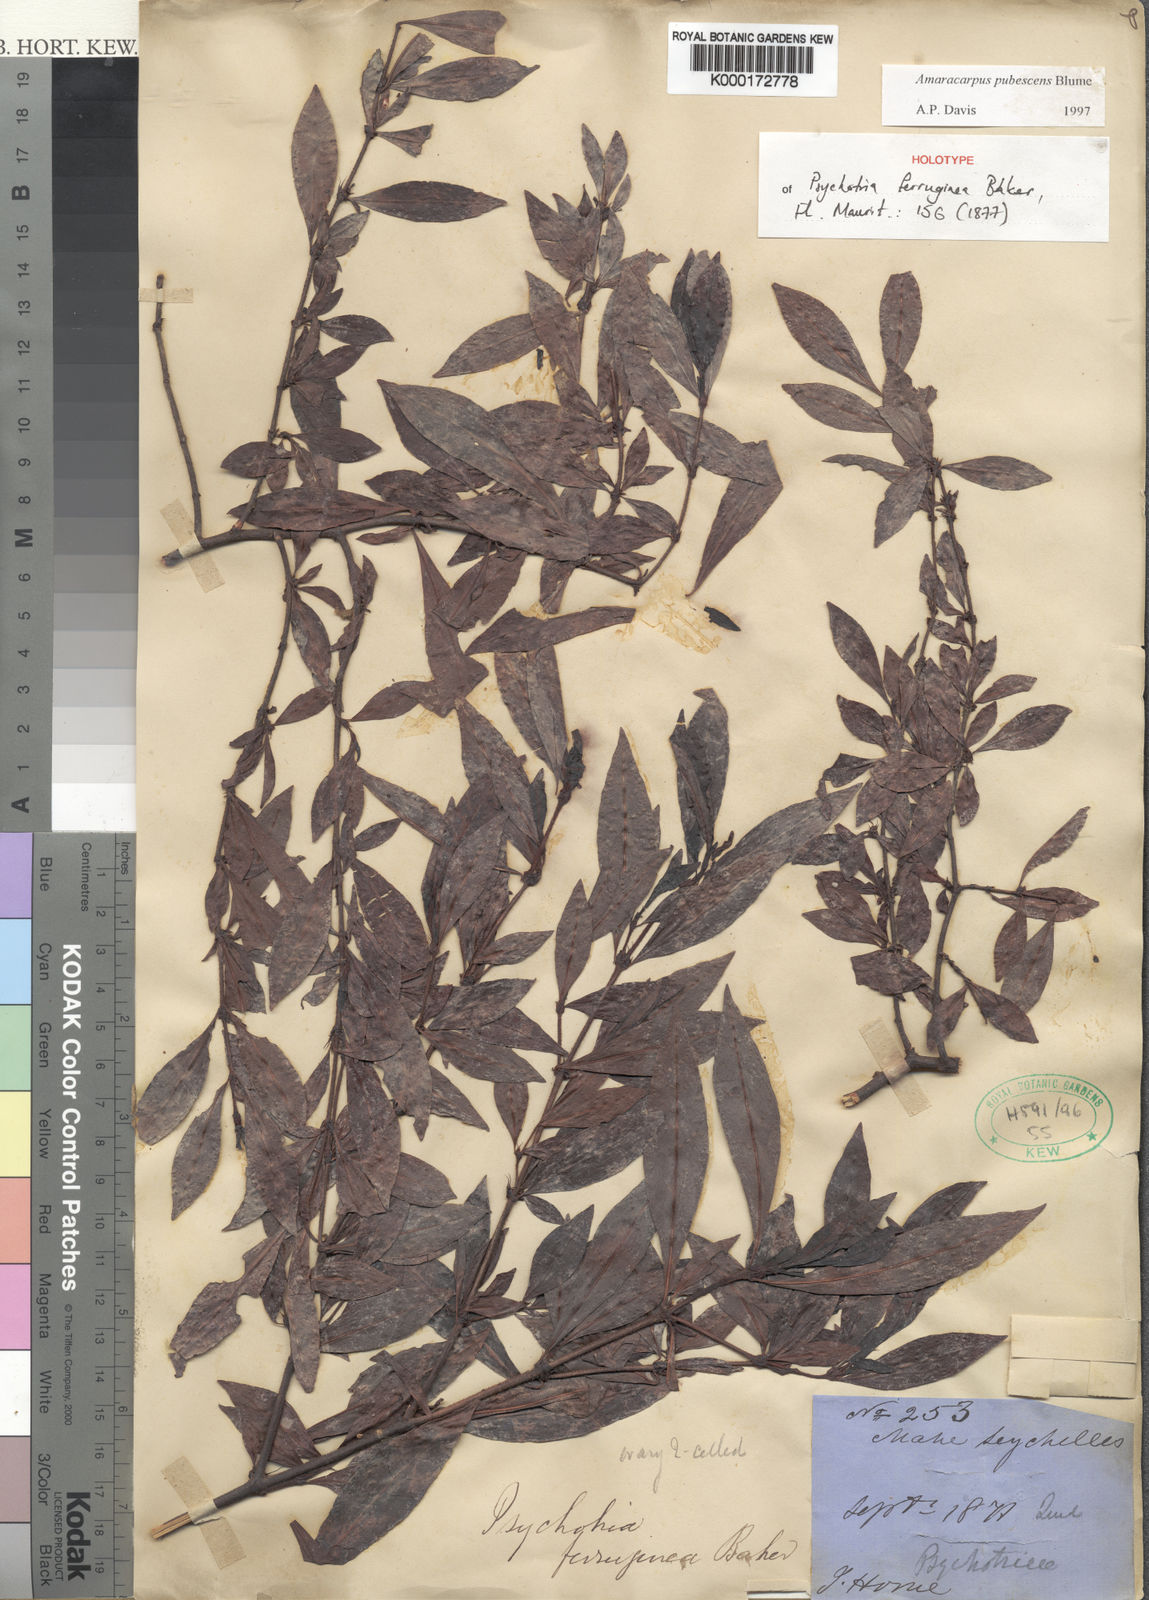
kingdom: Plantae
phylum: Tracheophyta
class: Magnoliopsida
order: Gentianales
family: Rubiaceae
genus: Amaracarpus
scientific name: Amaracarpus pubescens
